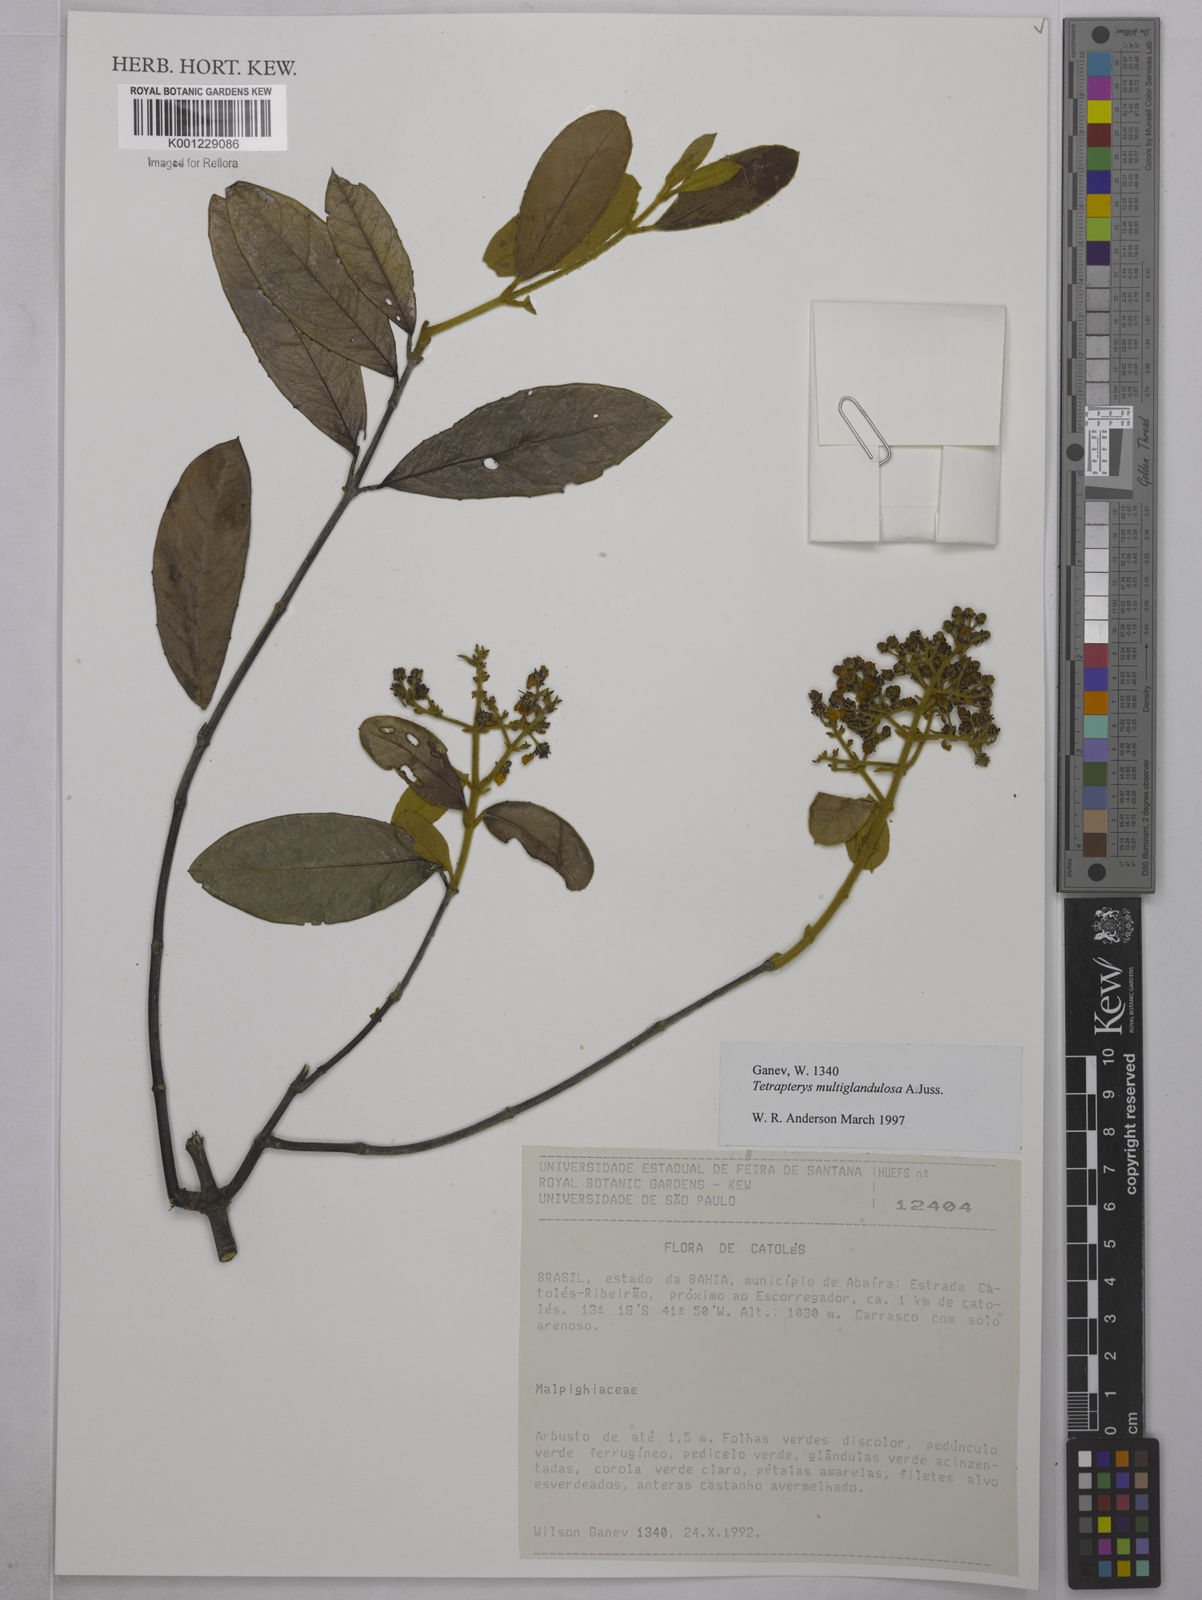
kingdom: Plantae
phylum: Tracheophyta
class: Magnoliopsida
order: Malpighiales
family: Malpighiaceae
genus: Niedenzuella
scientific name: Niedenzuella multiglandulosa
